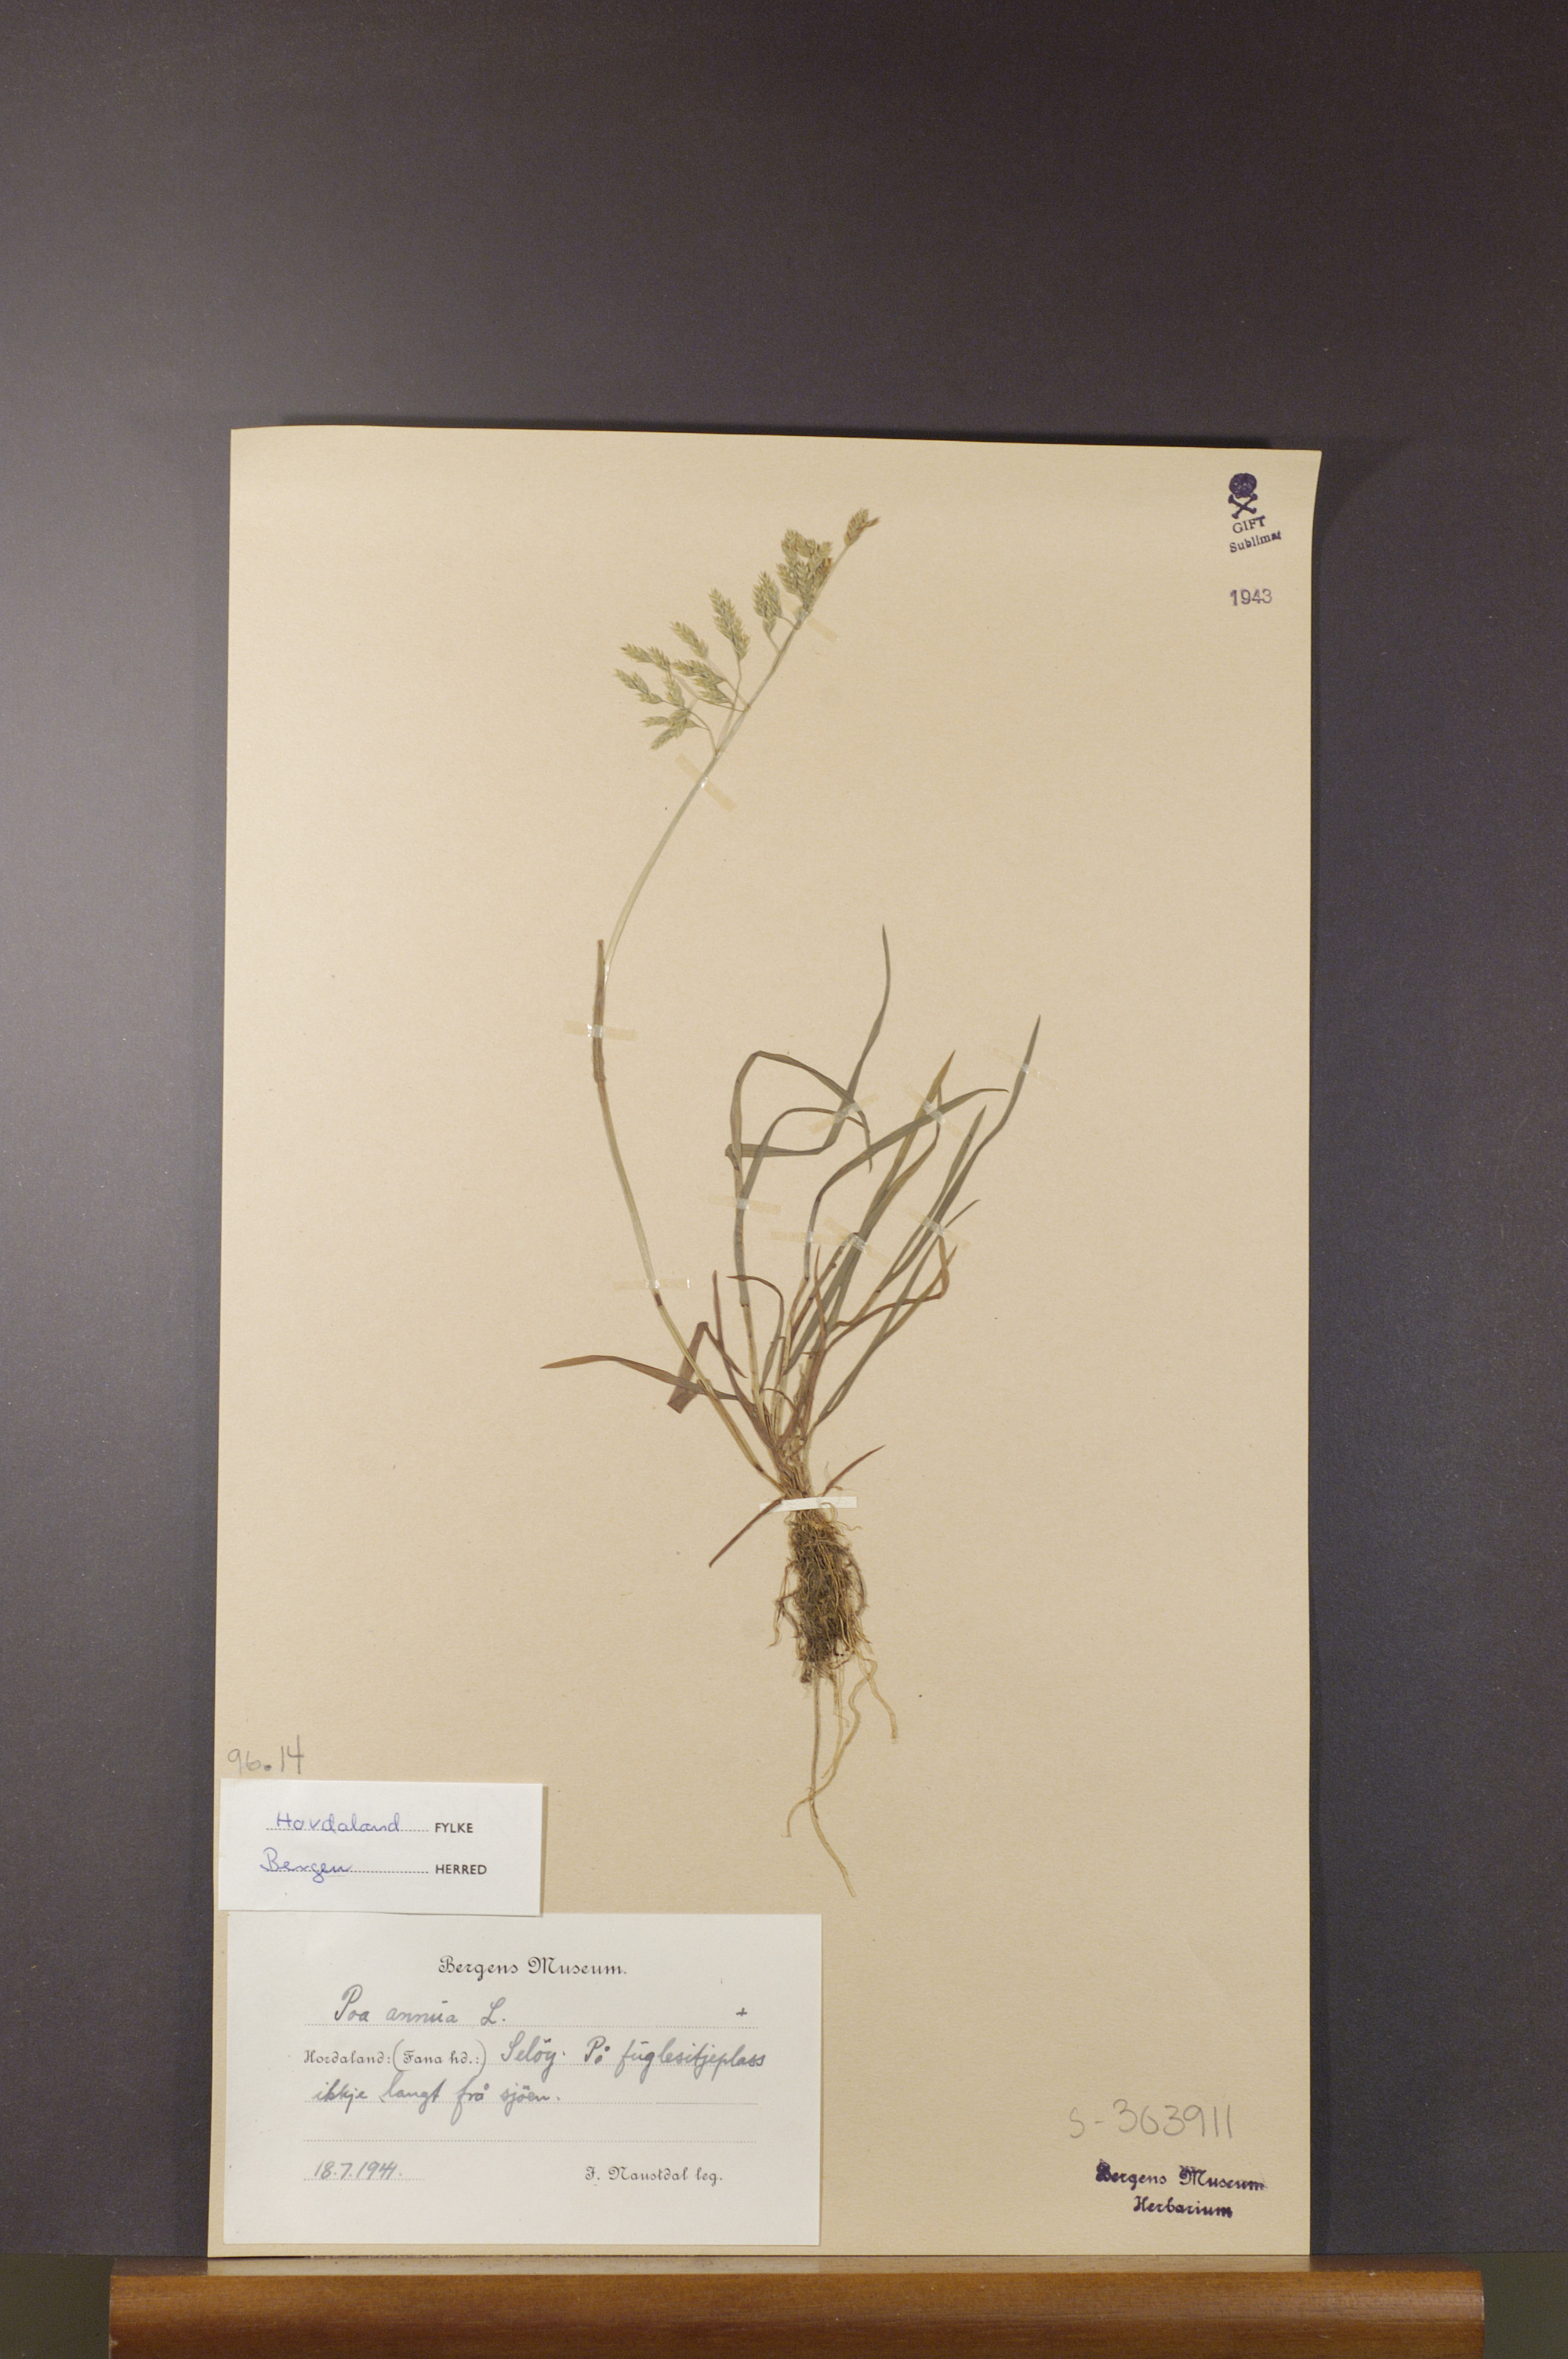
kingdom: Plantae
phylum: Tracheophyta
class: Liliopsida
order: Poales
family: Poaceae
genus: Poa
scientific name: Poa annua
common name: Annual bluegrass
